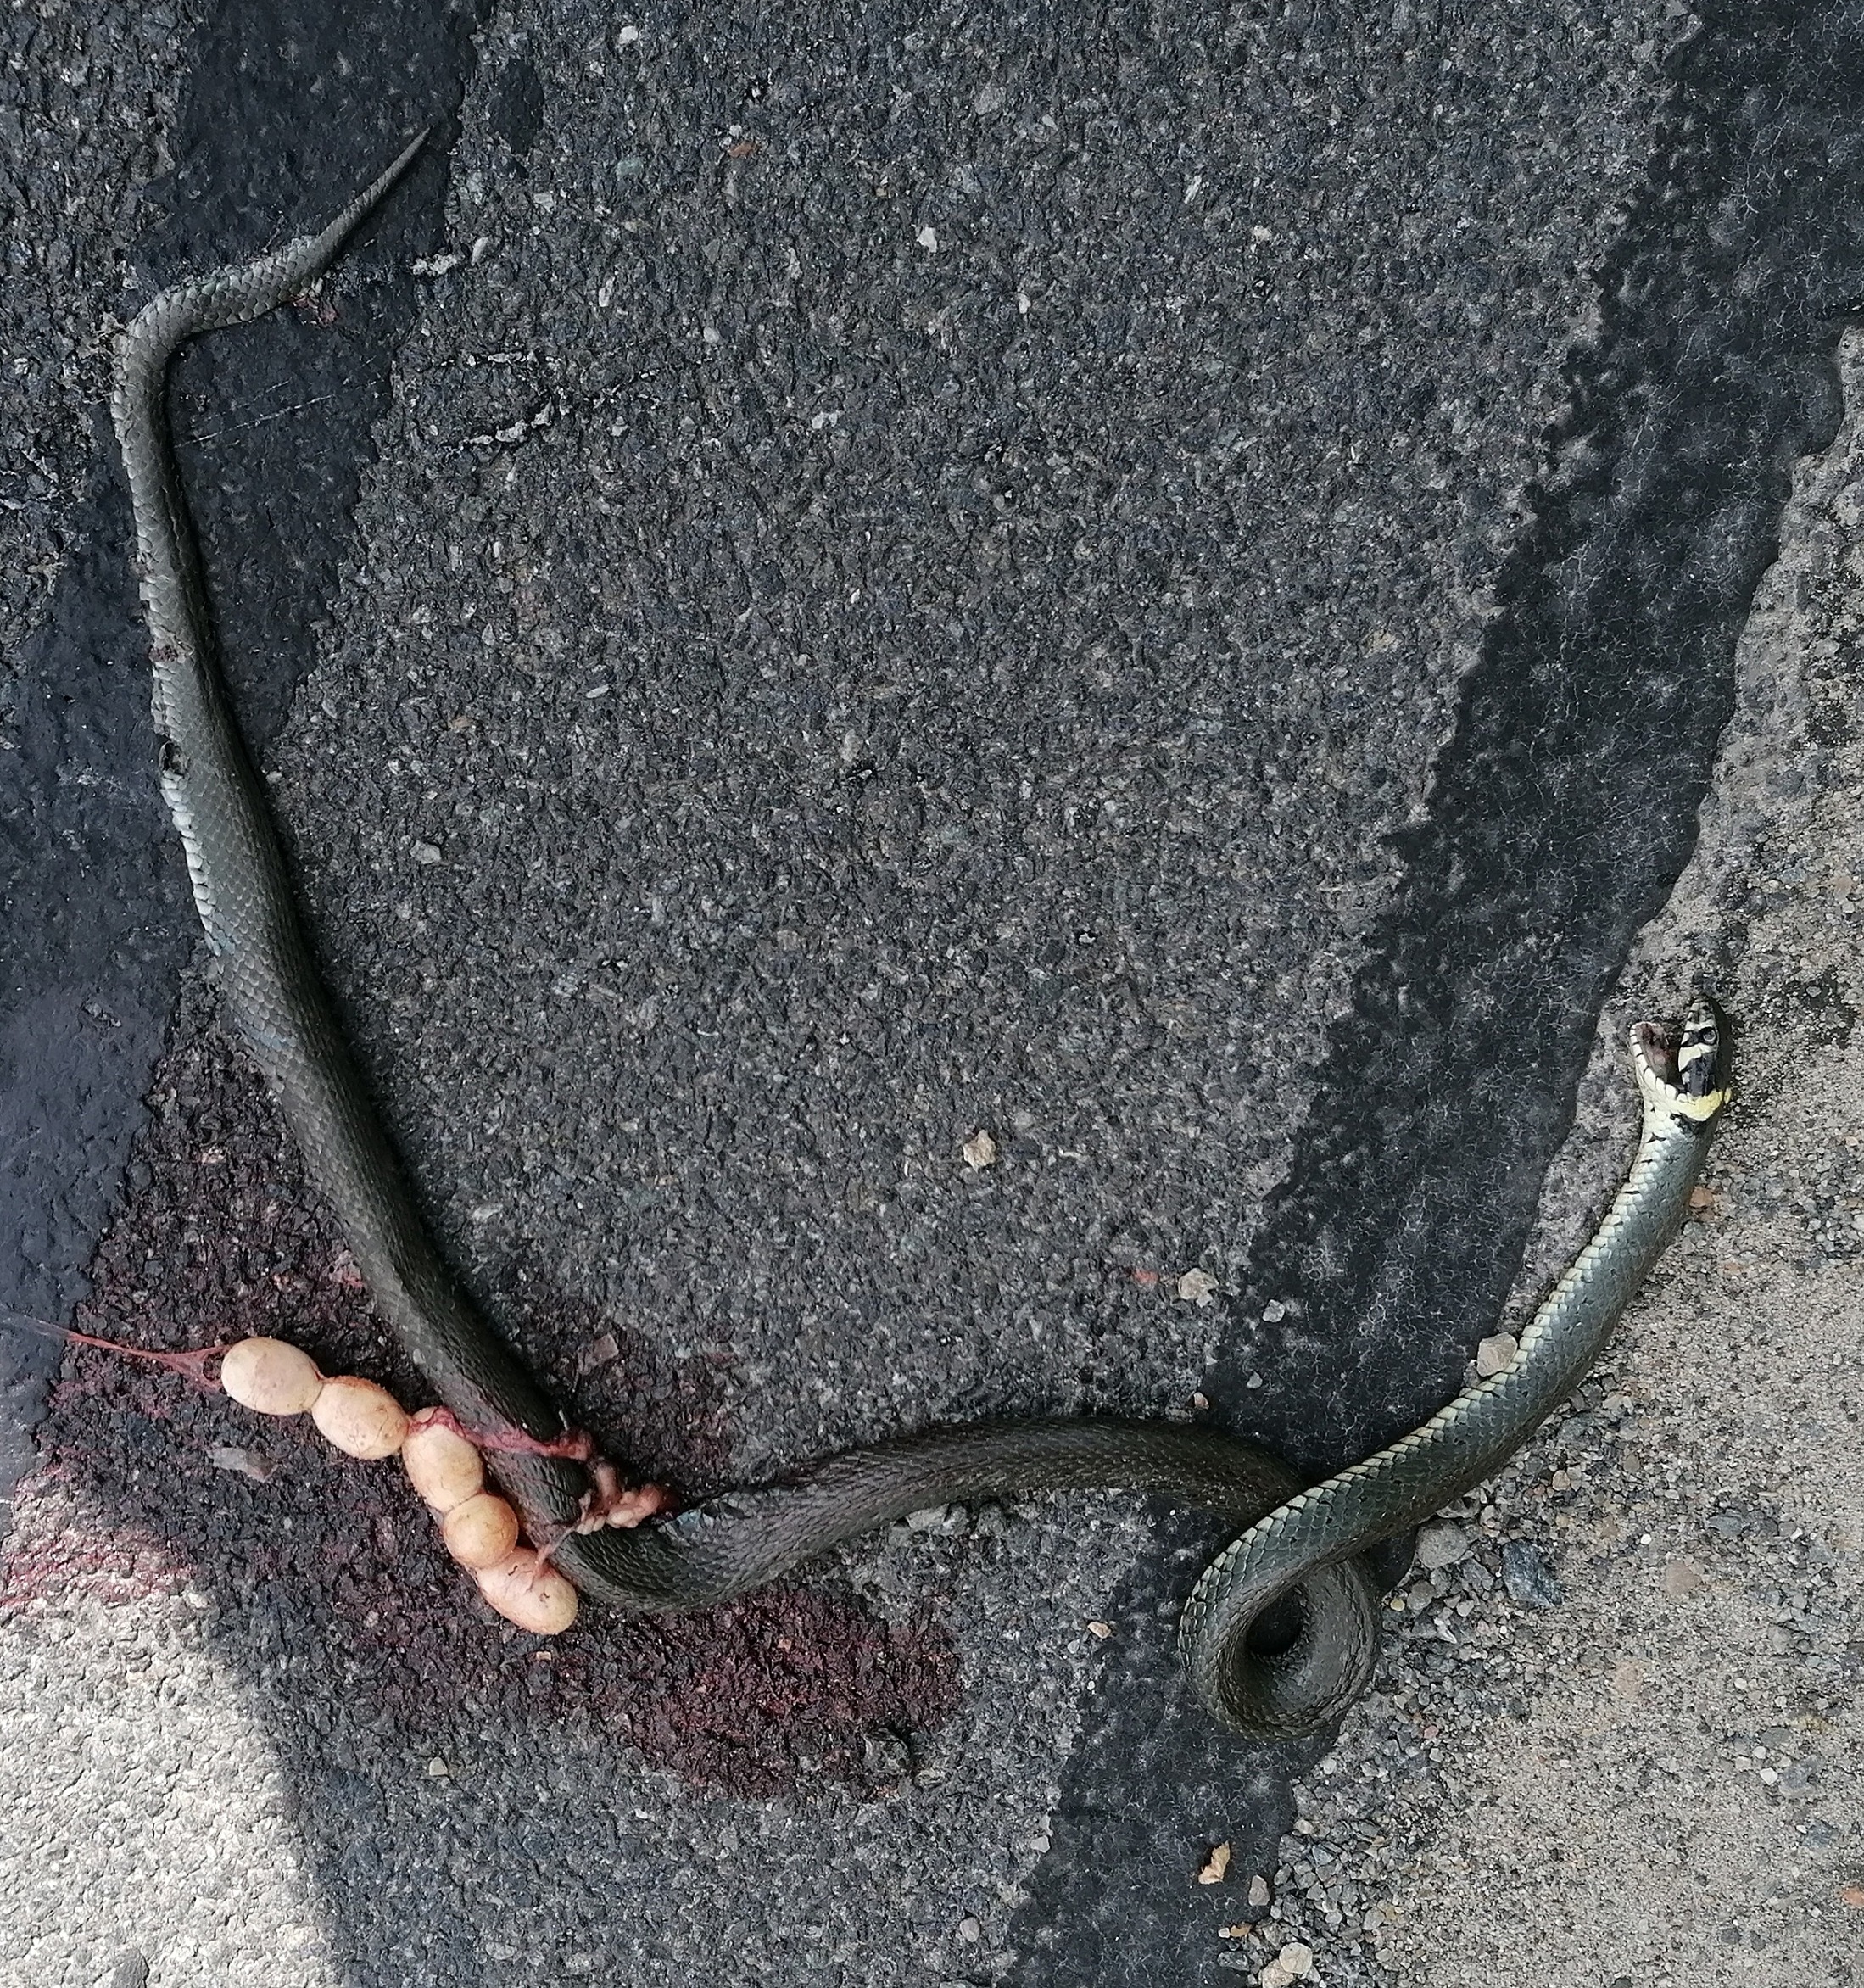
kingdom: Animalia
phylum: Chordata
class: Squamata
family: Colubridae
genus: Natrix
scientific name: Natrix natrix
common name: Snog
